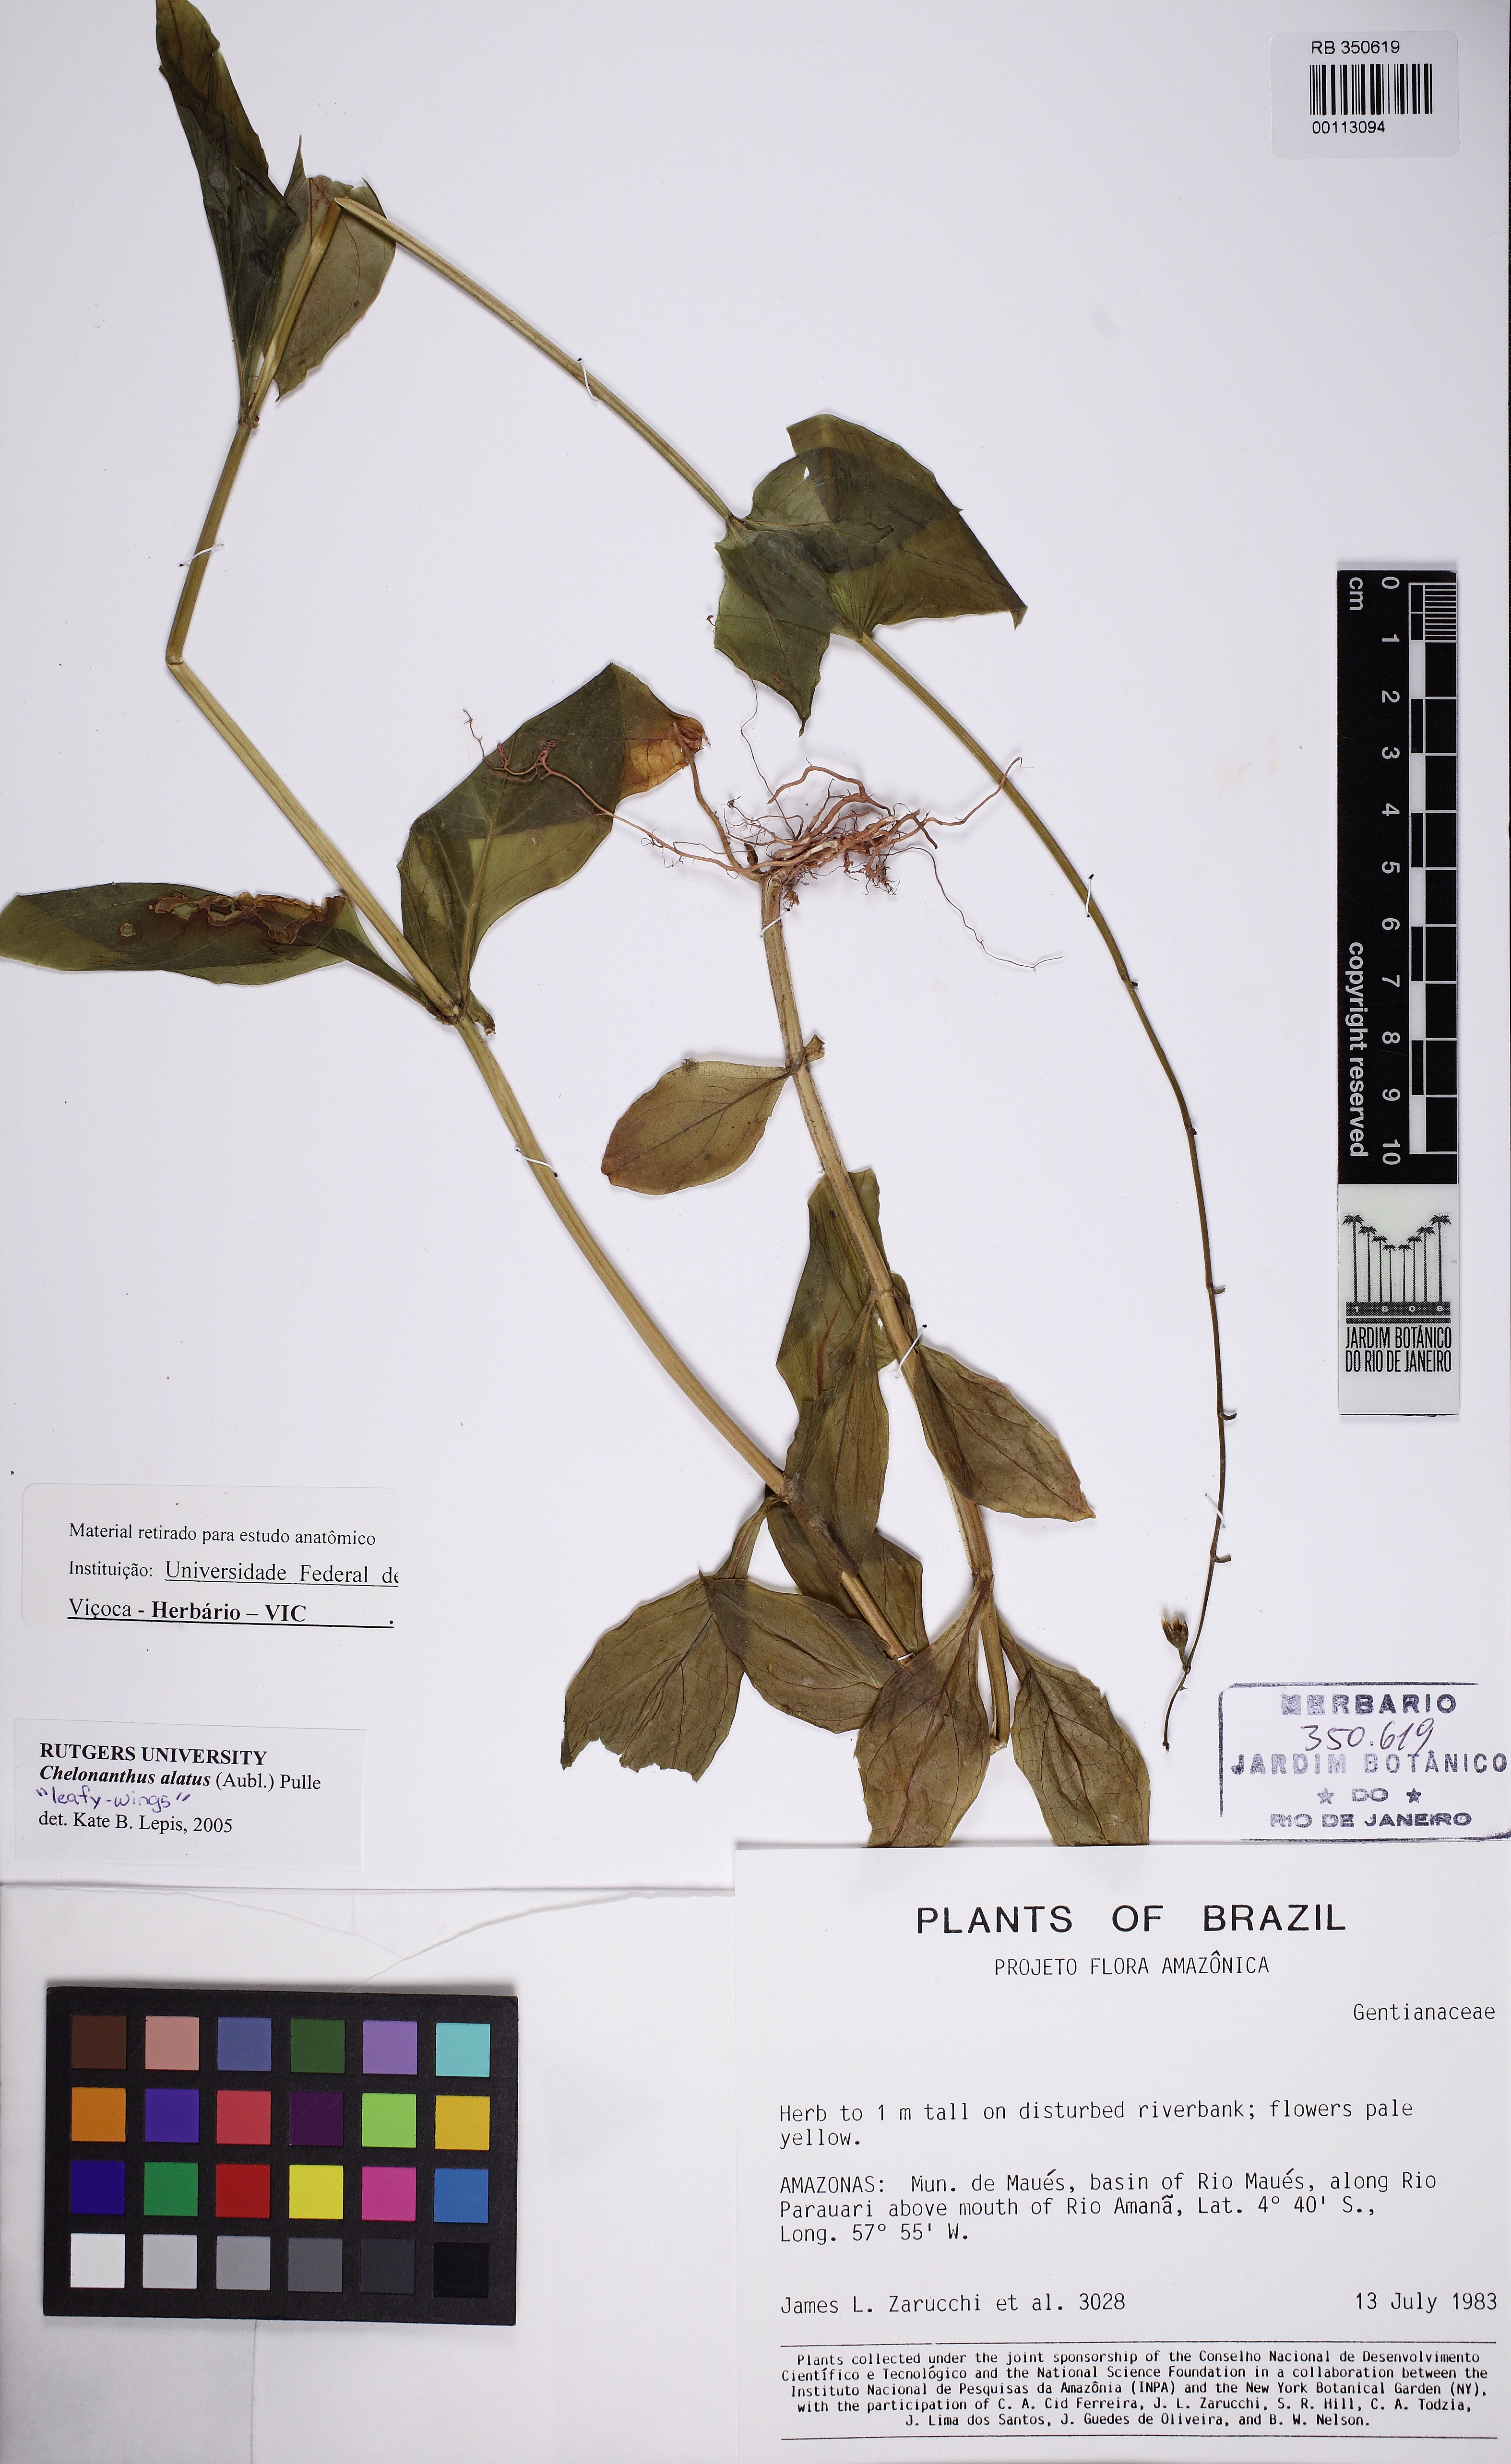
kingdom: Plantae
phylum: Tracheophyta
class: Magnoliopsida
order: Gentianales
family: Gentianaceae
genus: Chelonanthus
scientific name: Chelonanthus alatus
